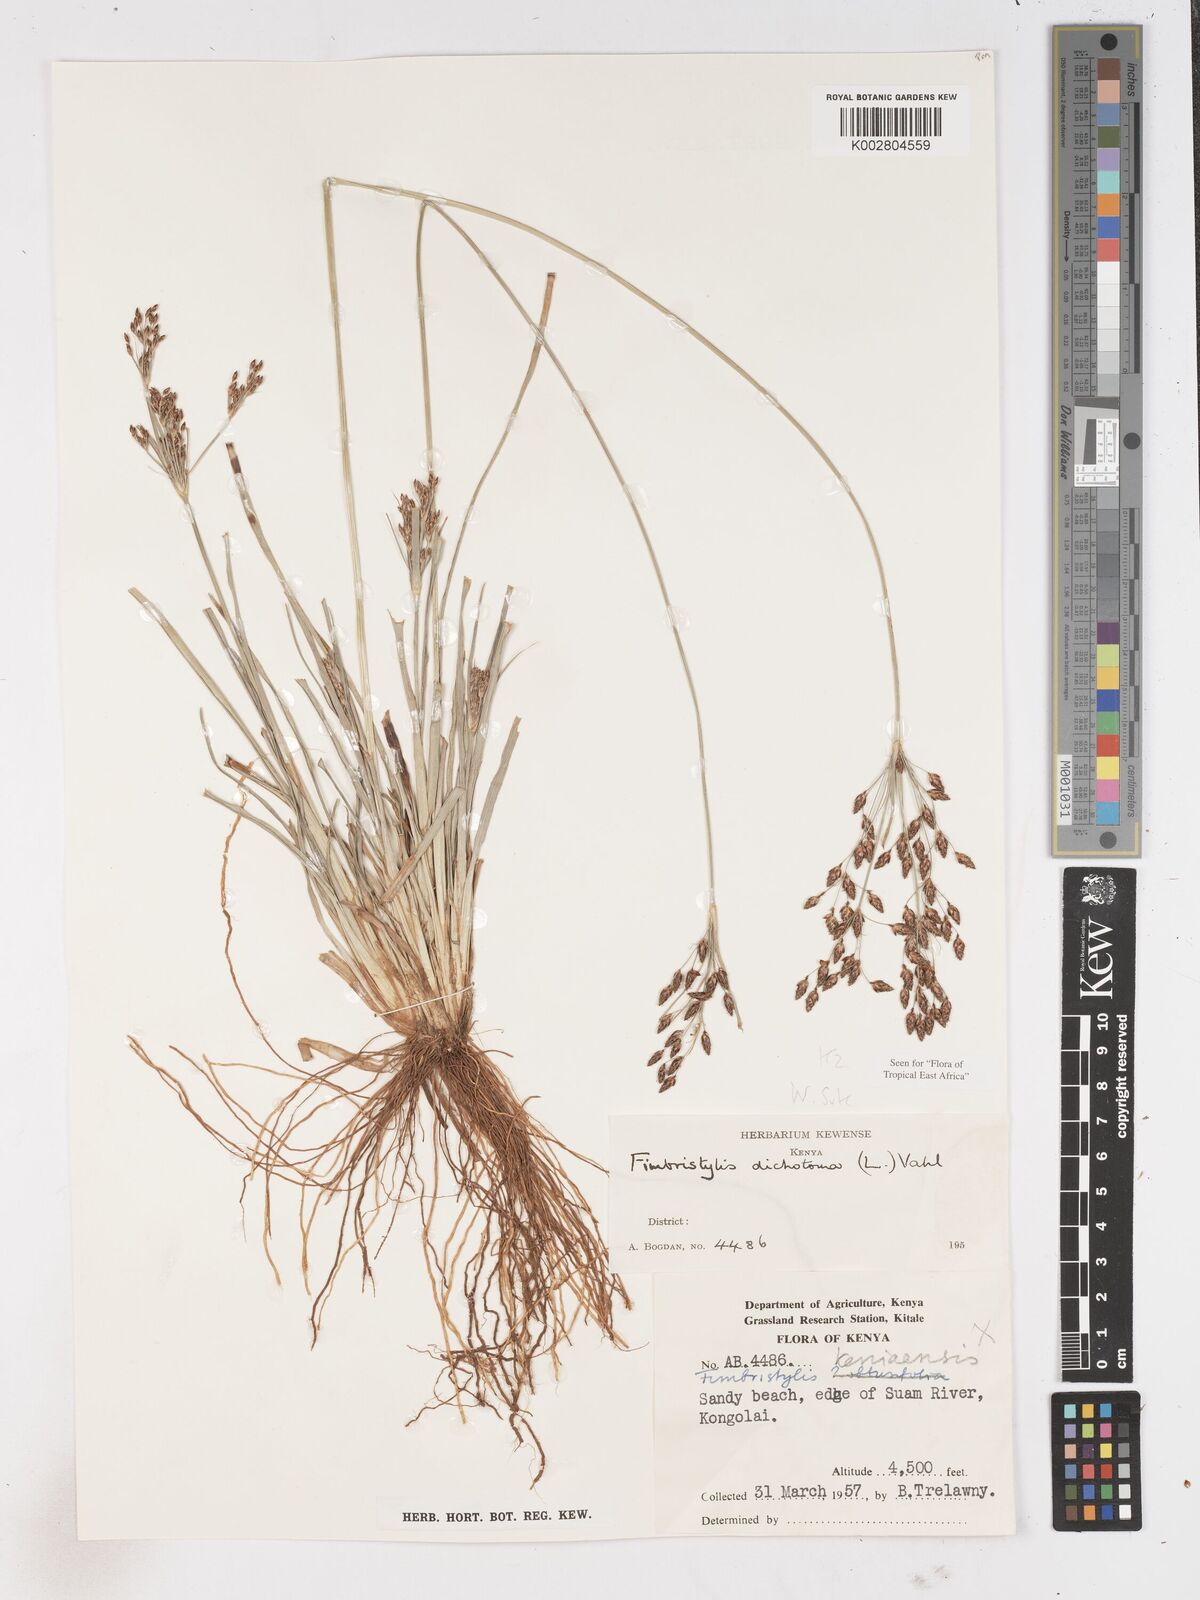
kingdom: Plantae
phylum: Tracheophyta
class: Liliopsida
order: Poales
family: Cyperaceae
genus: Fimbristylis
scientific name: Fimbristylis dichotoma
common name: Forked fimbry
